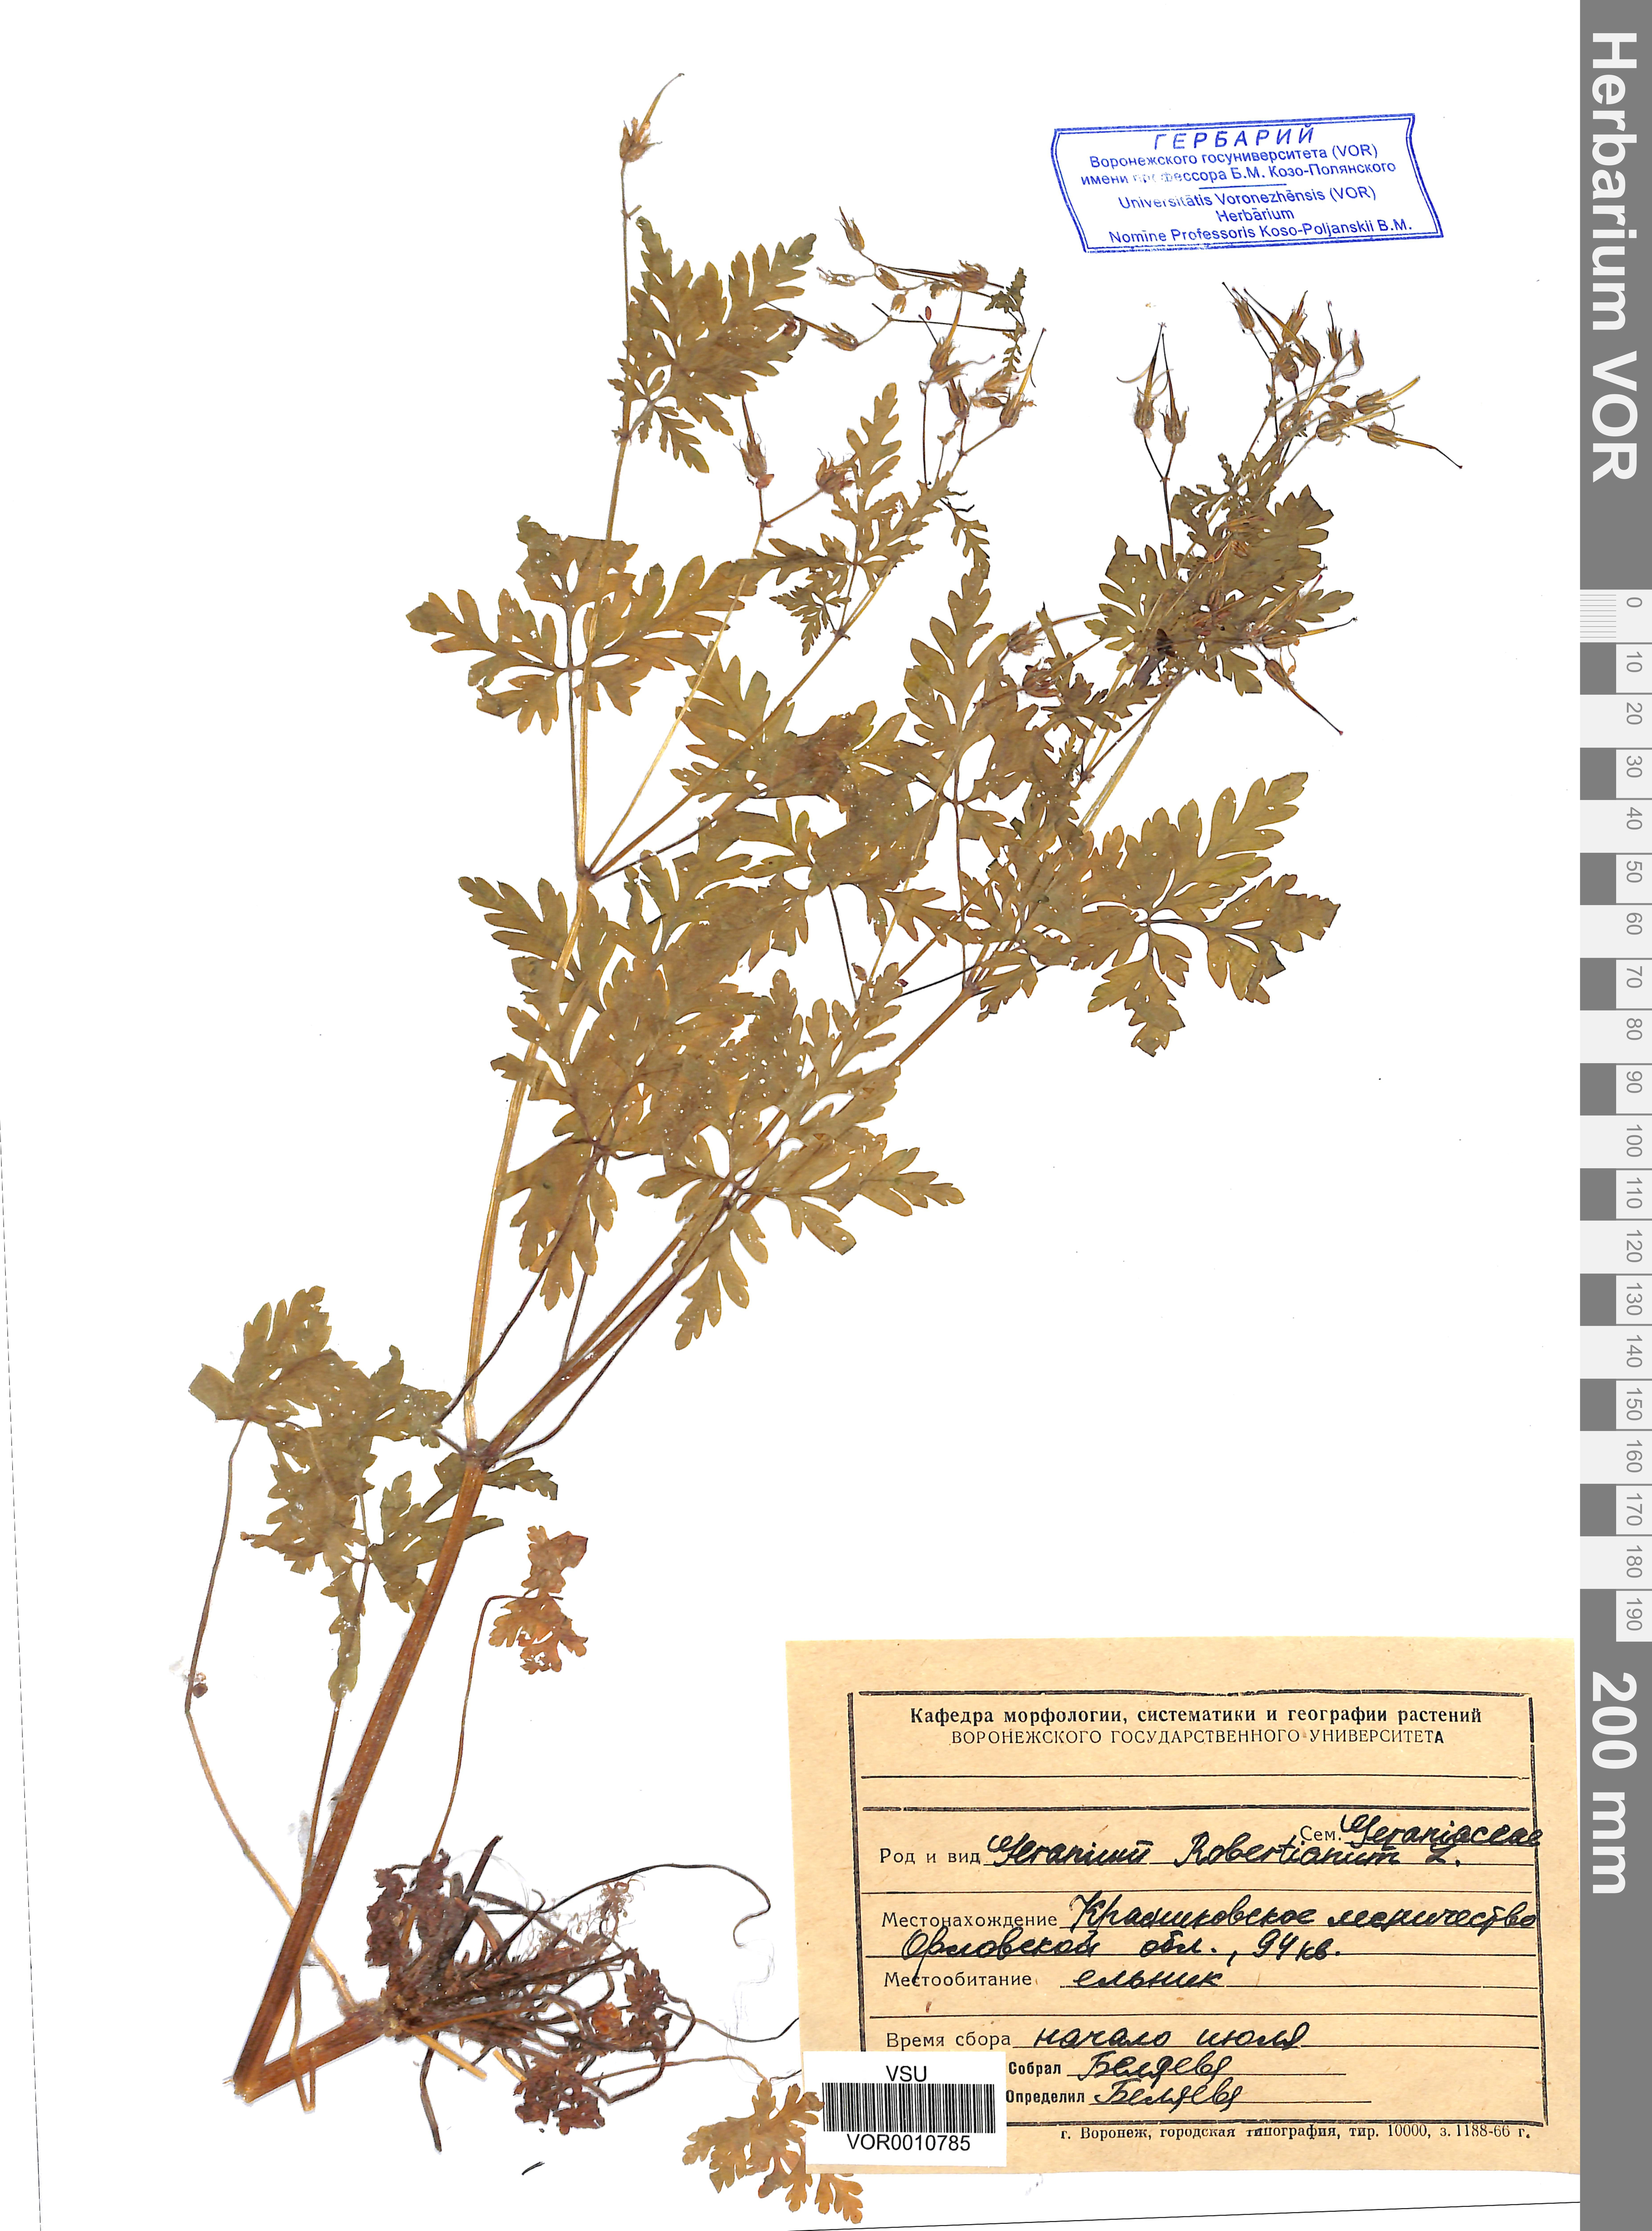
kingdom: Plantae
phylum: Tracheophyta
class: Magnoliopsida
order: Geraniales
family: Geraniaceae
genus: Geranium
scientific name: Geranium robertianum
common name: Herb-robert
